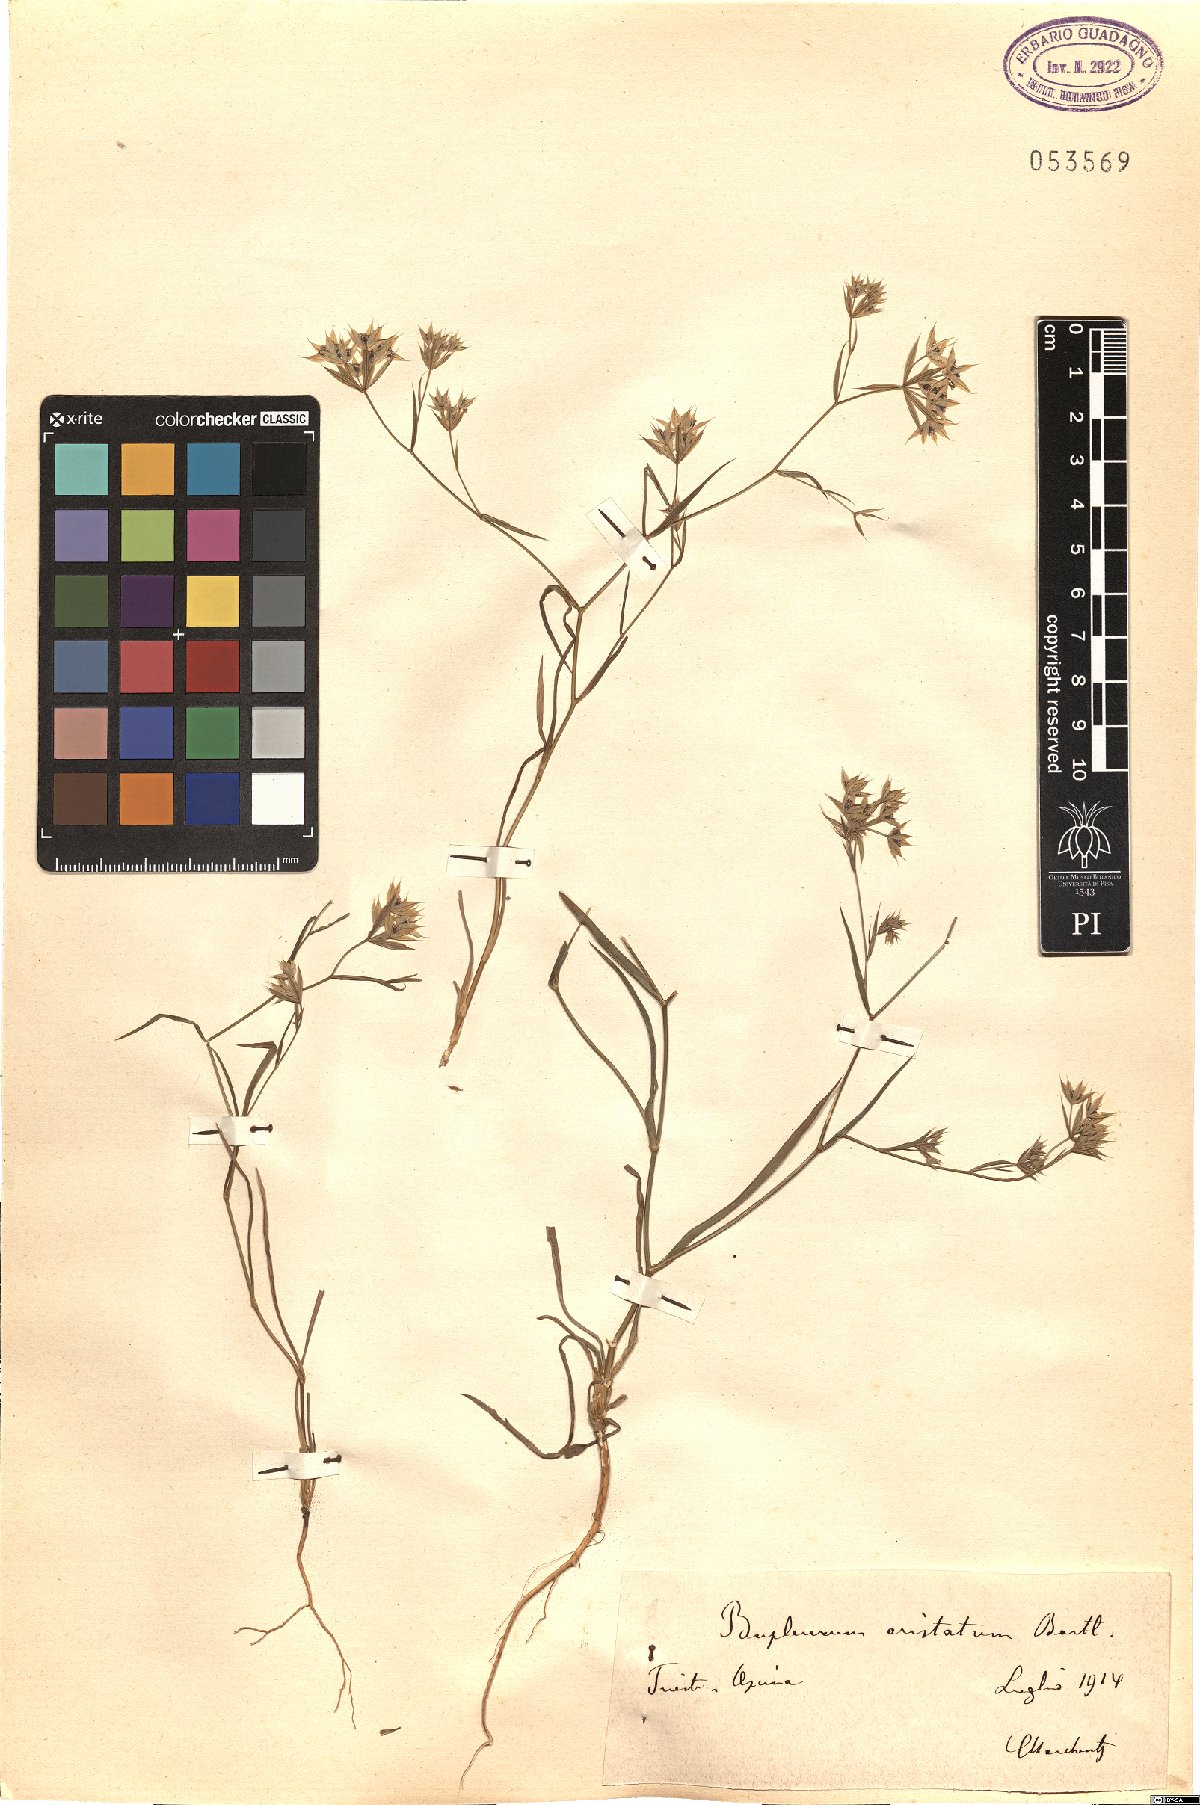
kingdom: Plantae
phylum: Tracheophyta
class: Magnoliopsida
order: Apiales
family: Apiaceae
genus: Bupleurum
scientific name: Bupleurum aristatum
